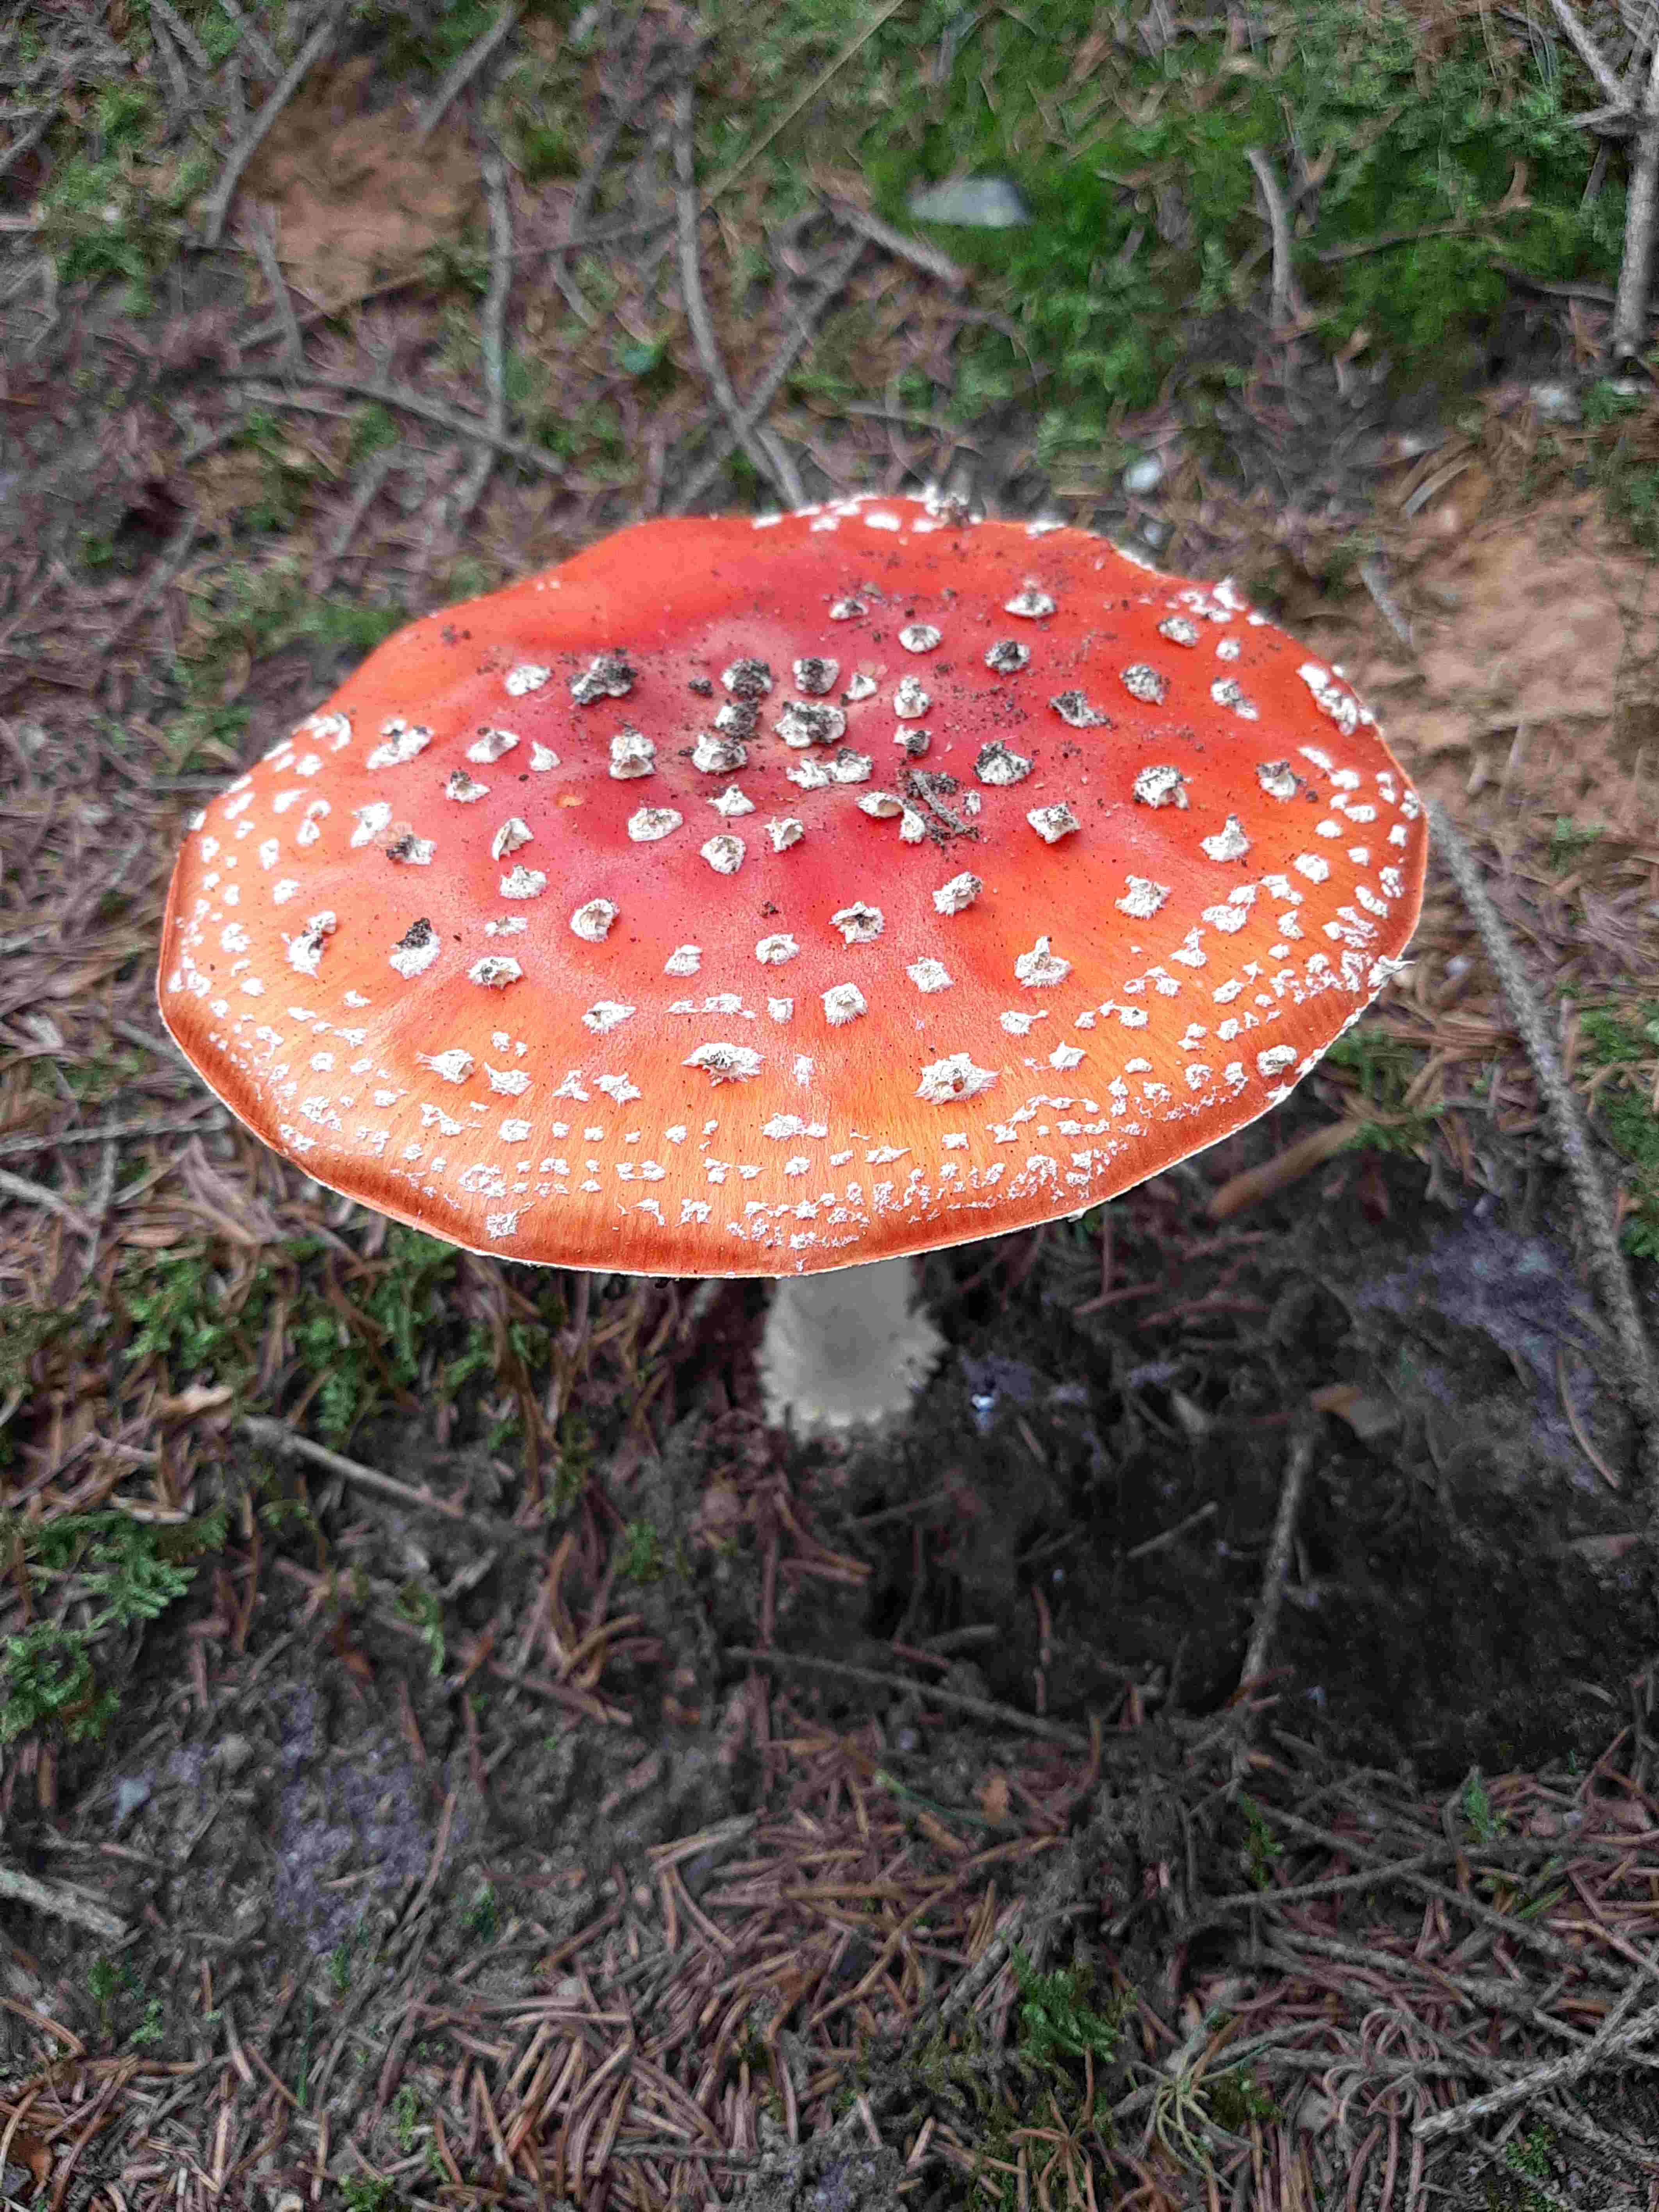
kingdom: Fungi
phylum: Basidiomycota
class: Agaricomycetes
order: Agaricales
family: Amanitaceae
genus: Amanita
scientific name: Amanita muscaria
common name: rød fluesvamp
